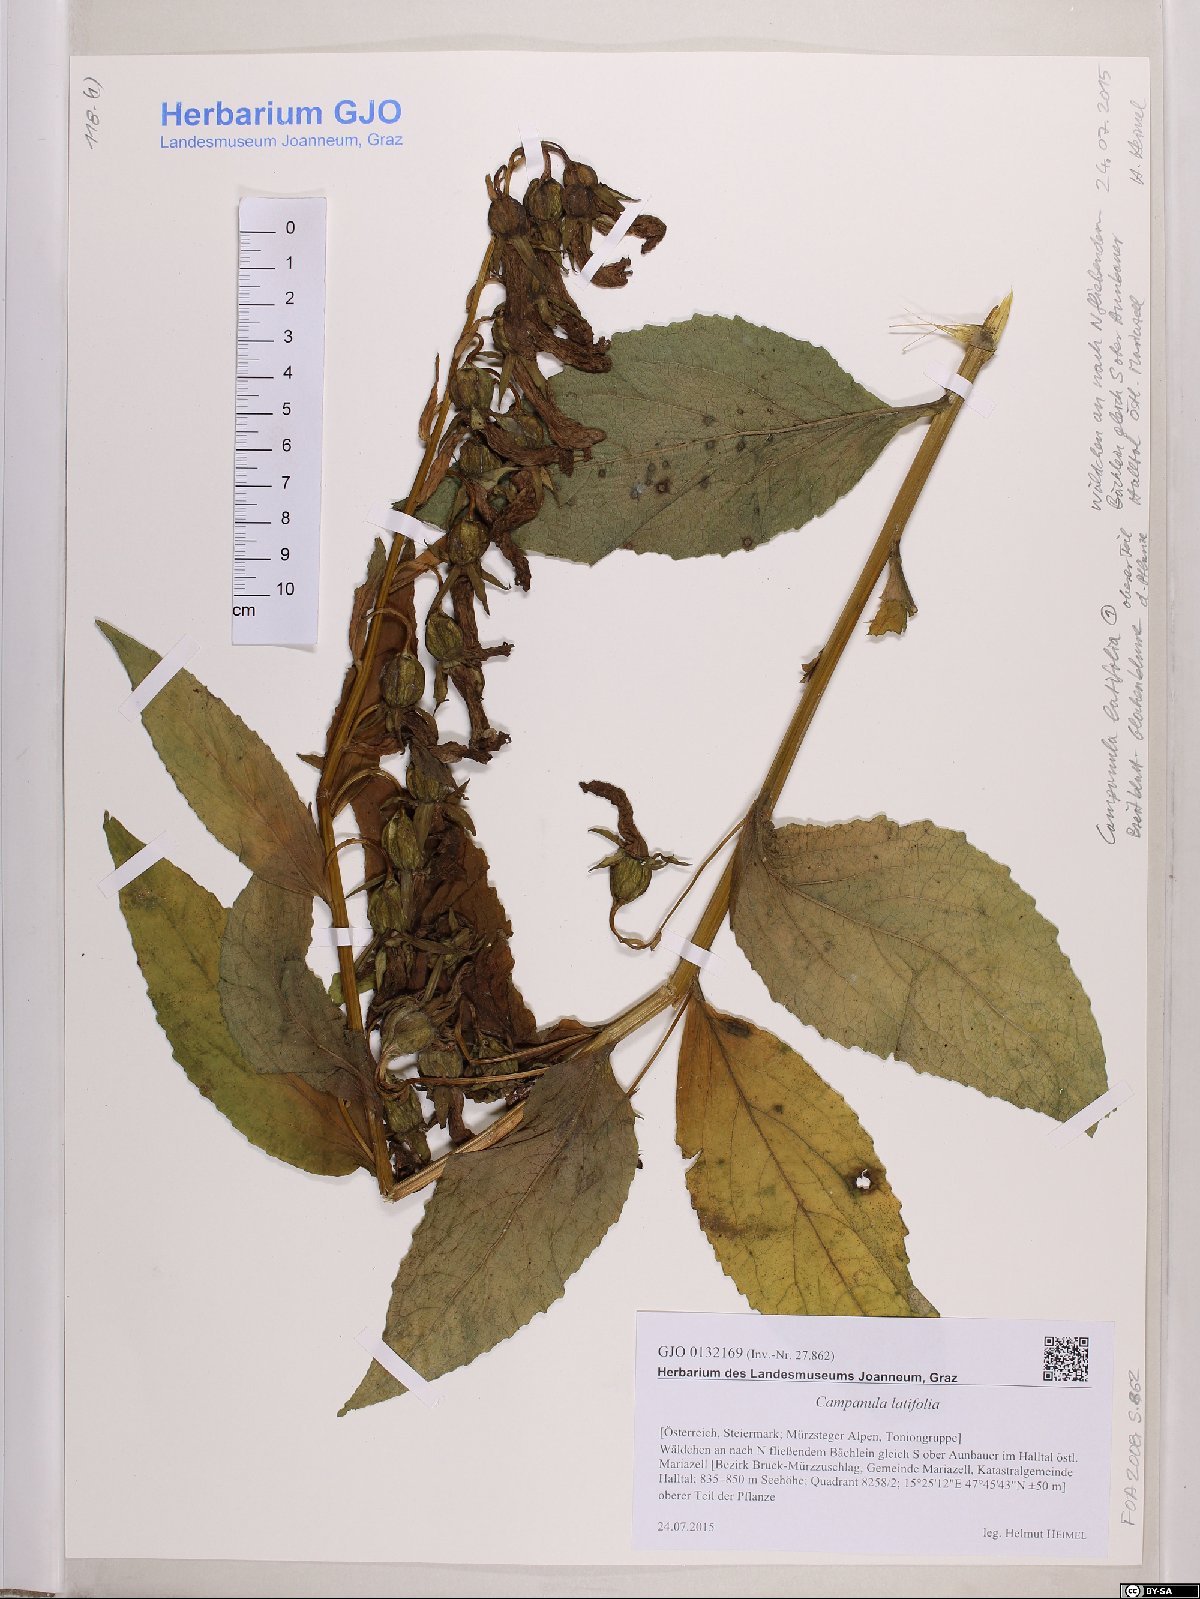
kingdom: Plantae
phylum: Tracheophyta
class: Magnoliopsida
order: Asterales
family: Campanulaceae
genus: Campanula
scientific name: Campanula latifolia
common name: Giant bellflower
